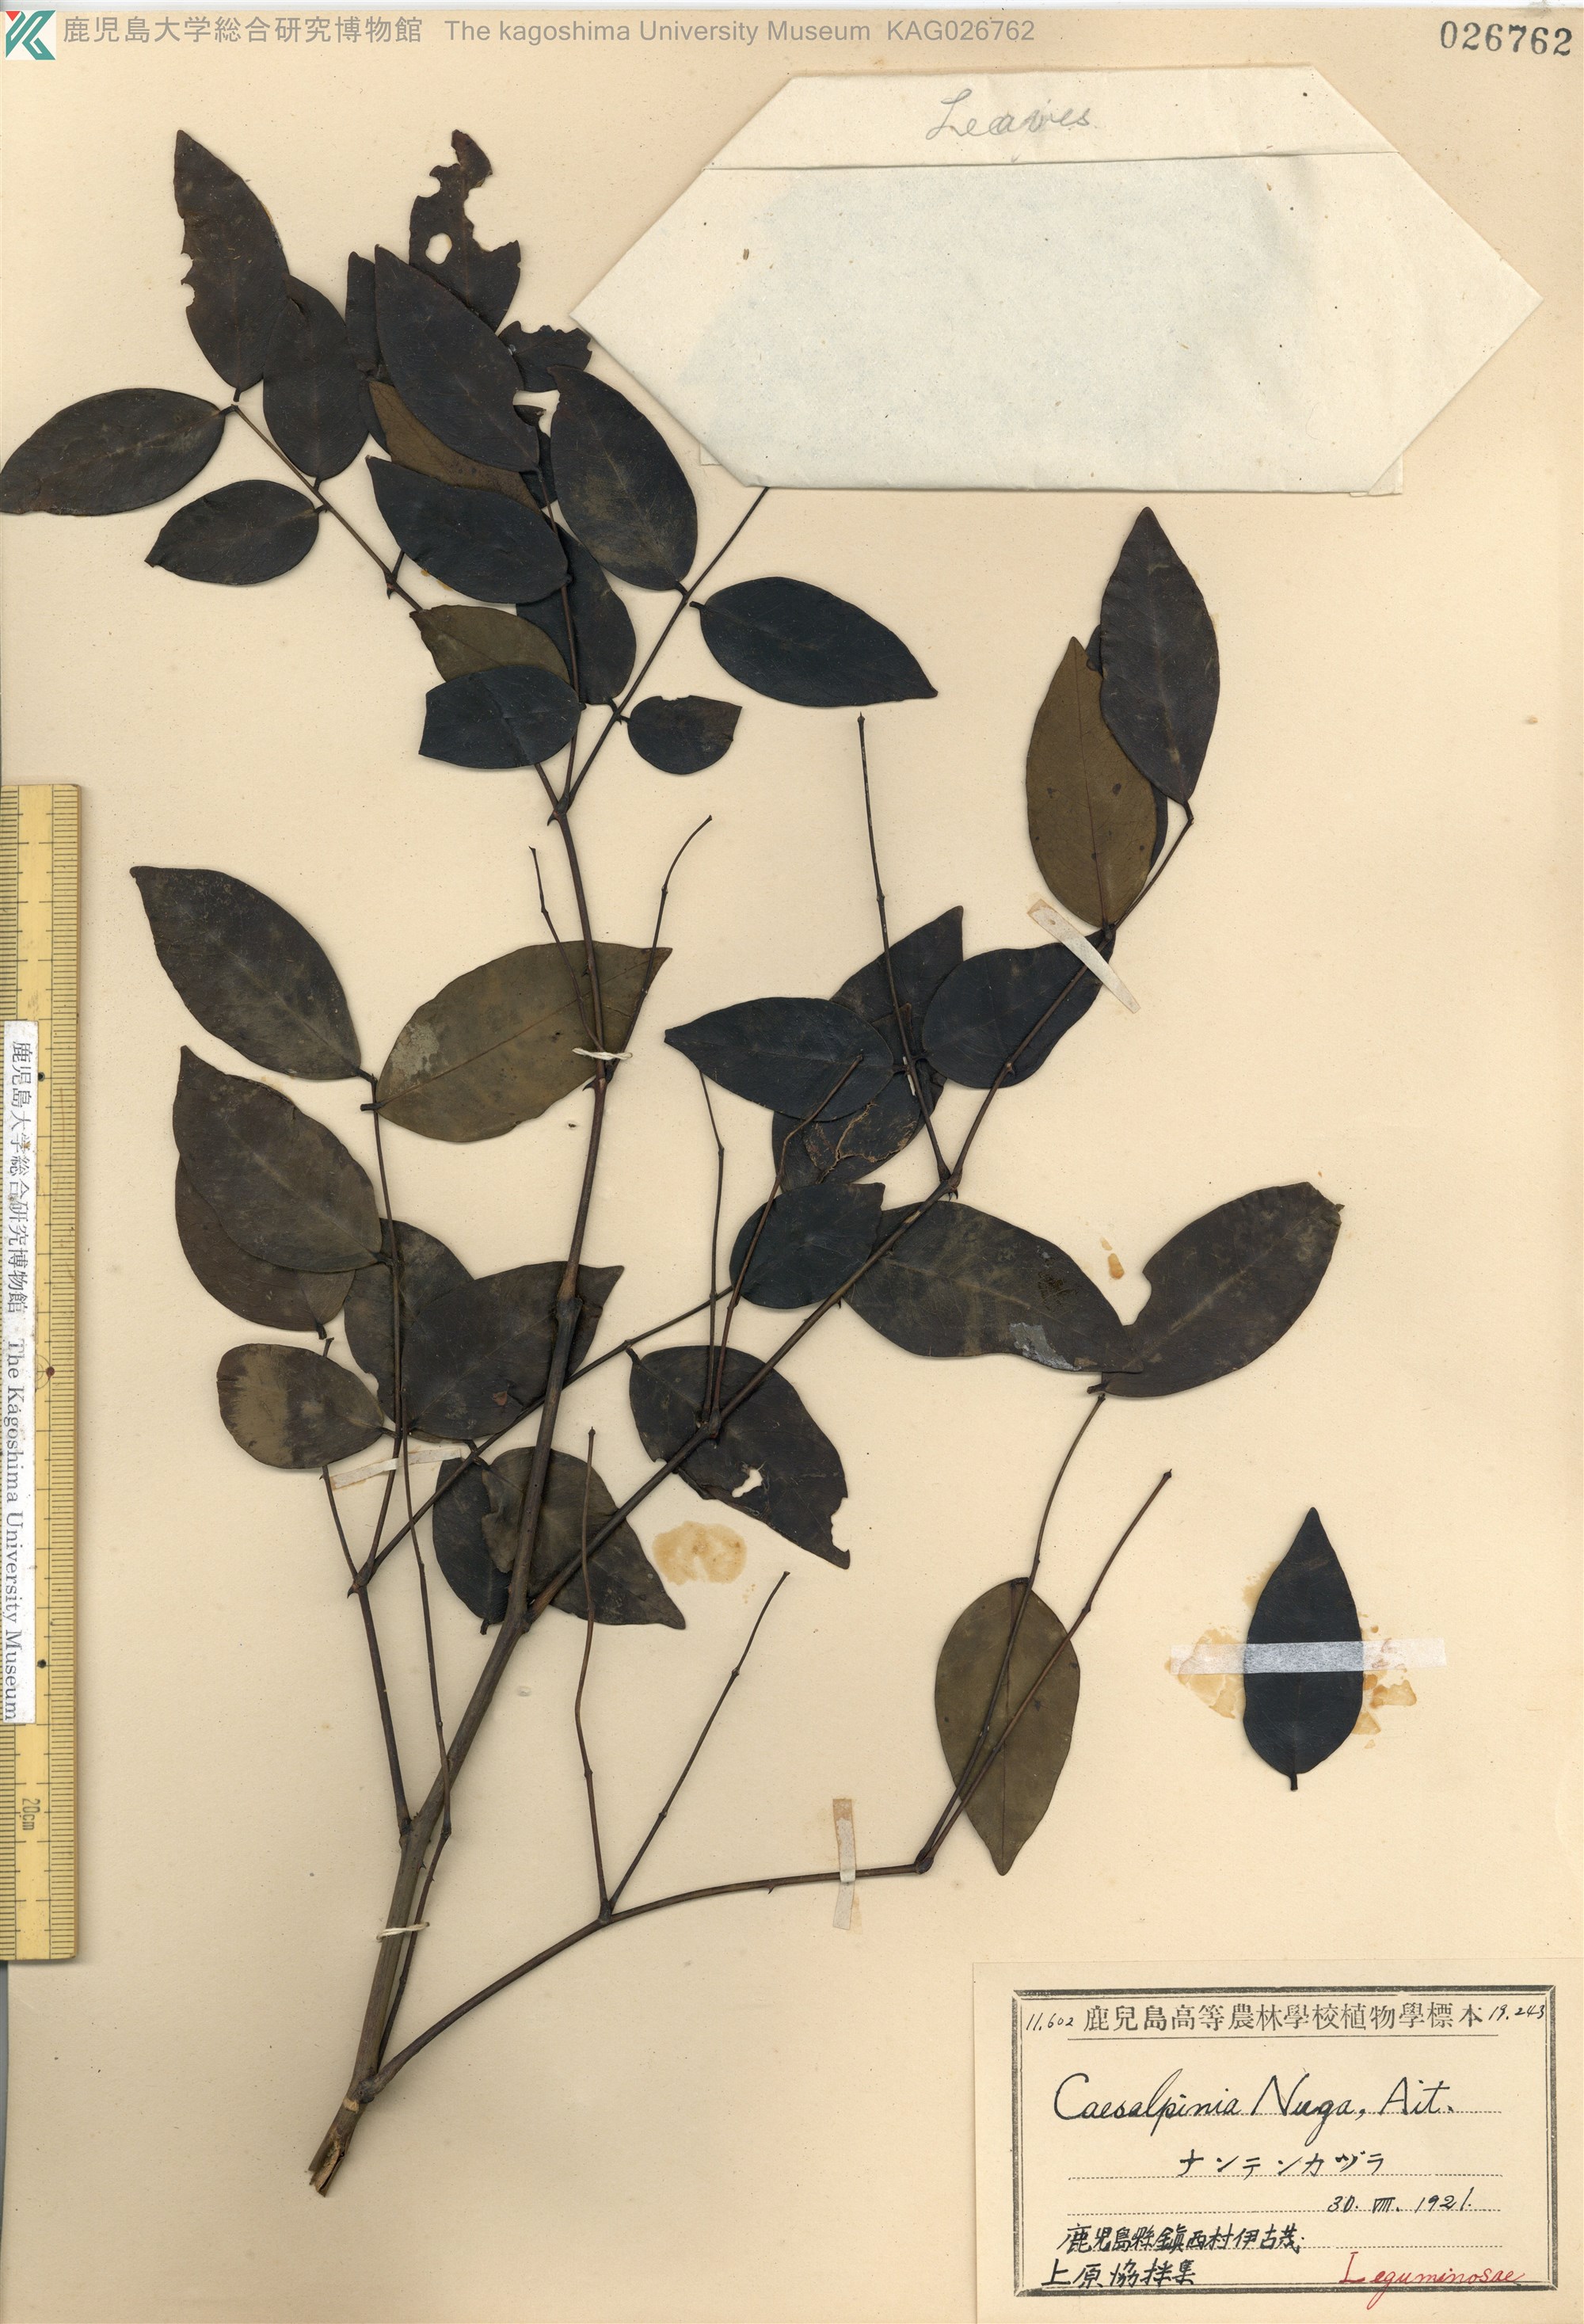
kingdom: Plantae
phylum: Tracheophyta
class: Magnoliopsida
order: Fabales
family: Fabaceae
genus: Caesalpinia
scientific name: Caesalpinia Ticanto crista
